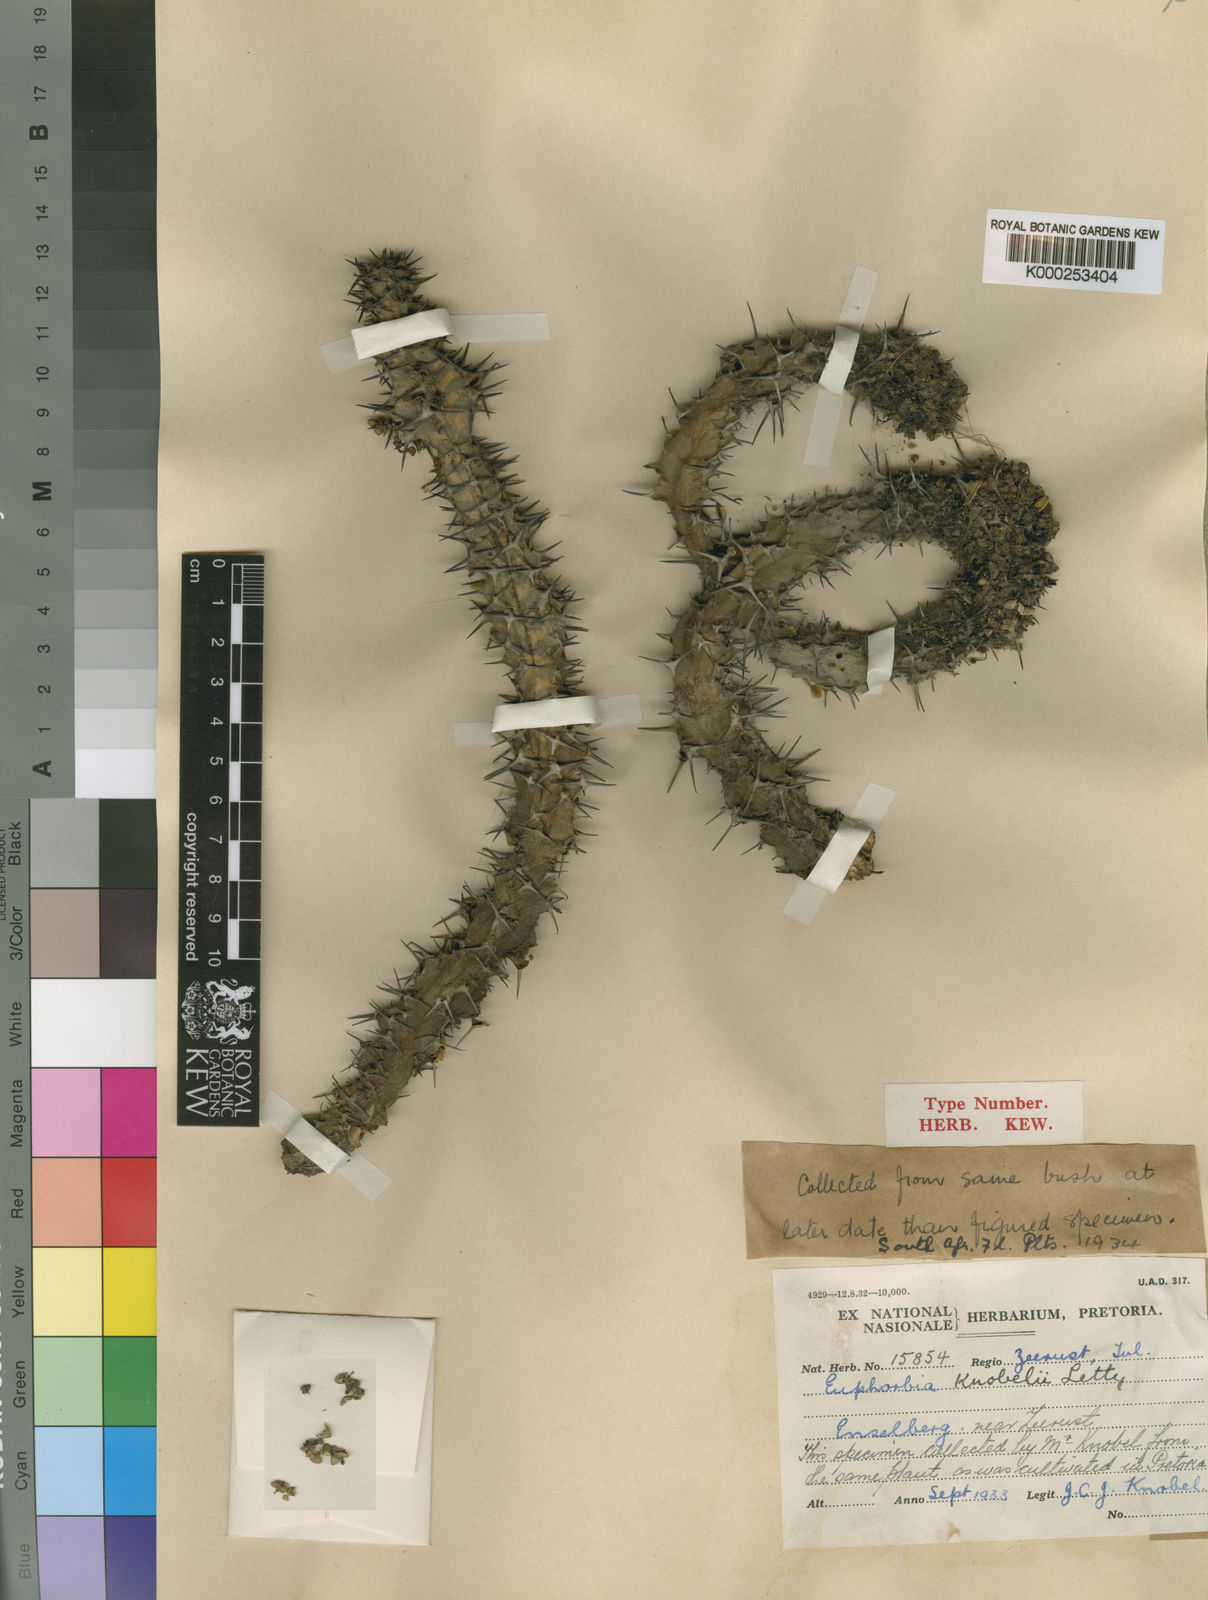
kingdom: Plantae
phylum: Tracheophyta
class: Magnoliopsida
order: Malpighiales
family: Euphorbiaceae
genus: Euphorbia
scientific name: Euphorbia knobelii
